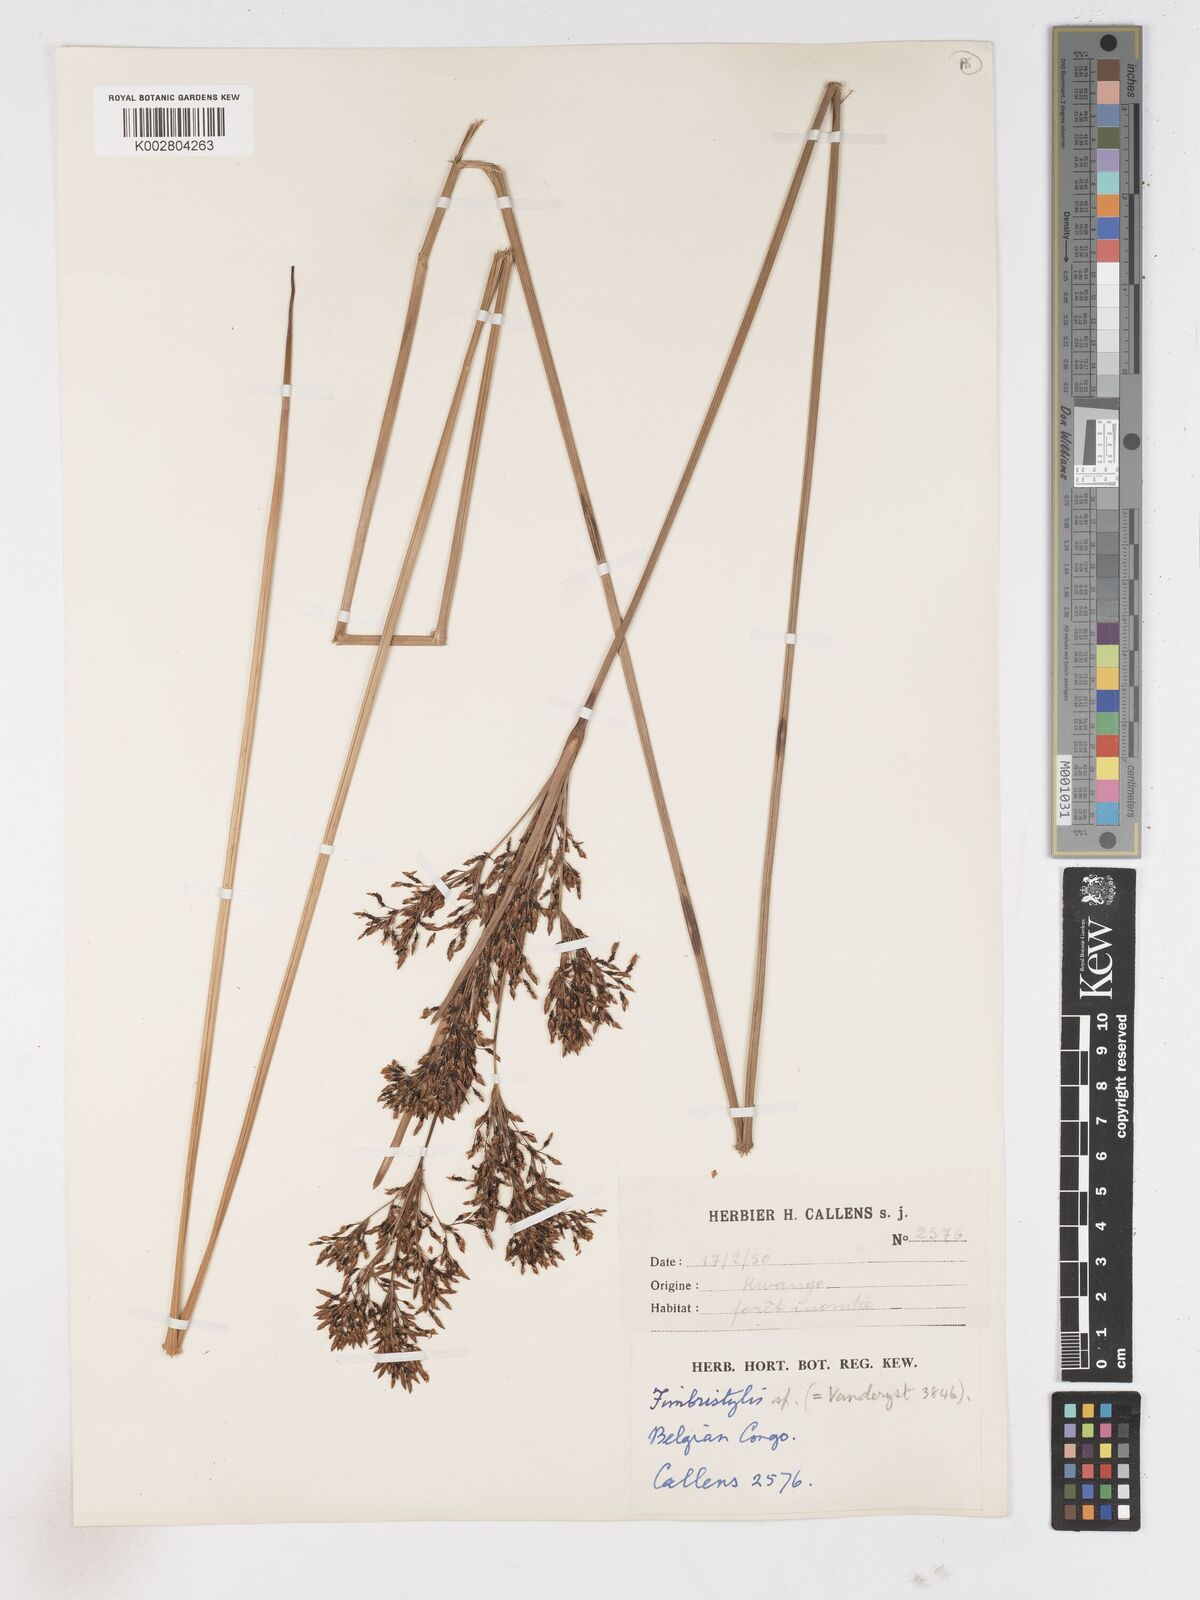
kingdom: Plantae
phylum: Tracheophyta
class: Liliopsida
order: Poales
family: Cyperaceae
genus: Fimbristylis
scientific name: Fimbristylis dura
